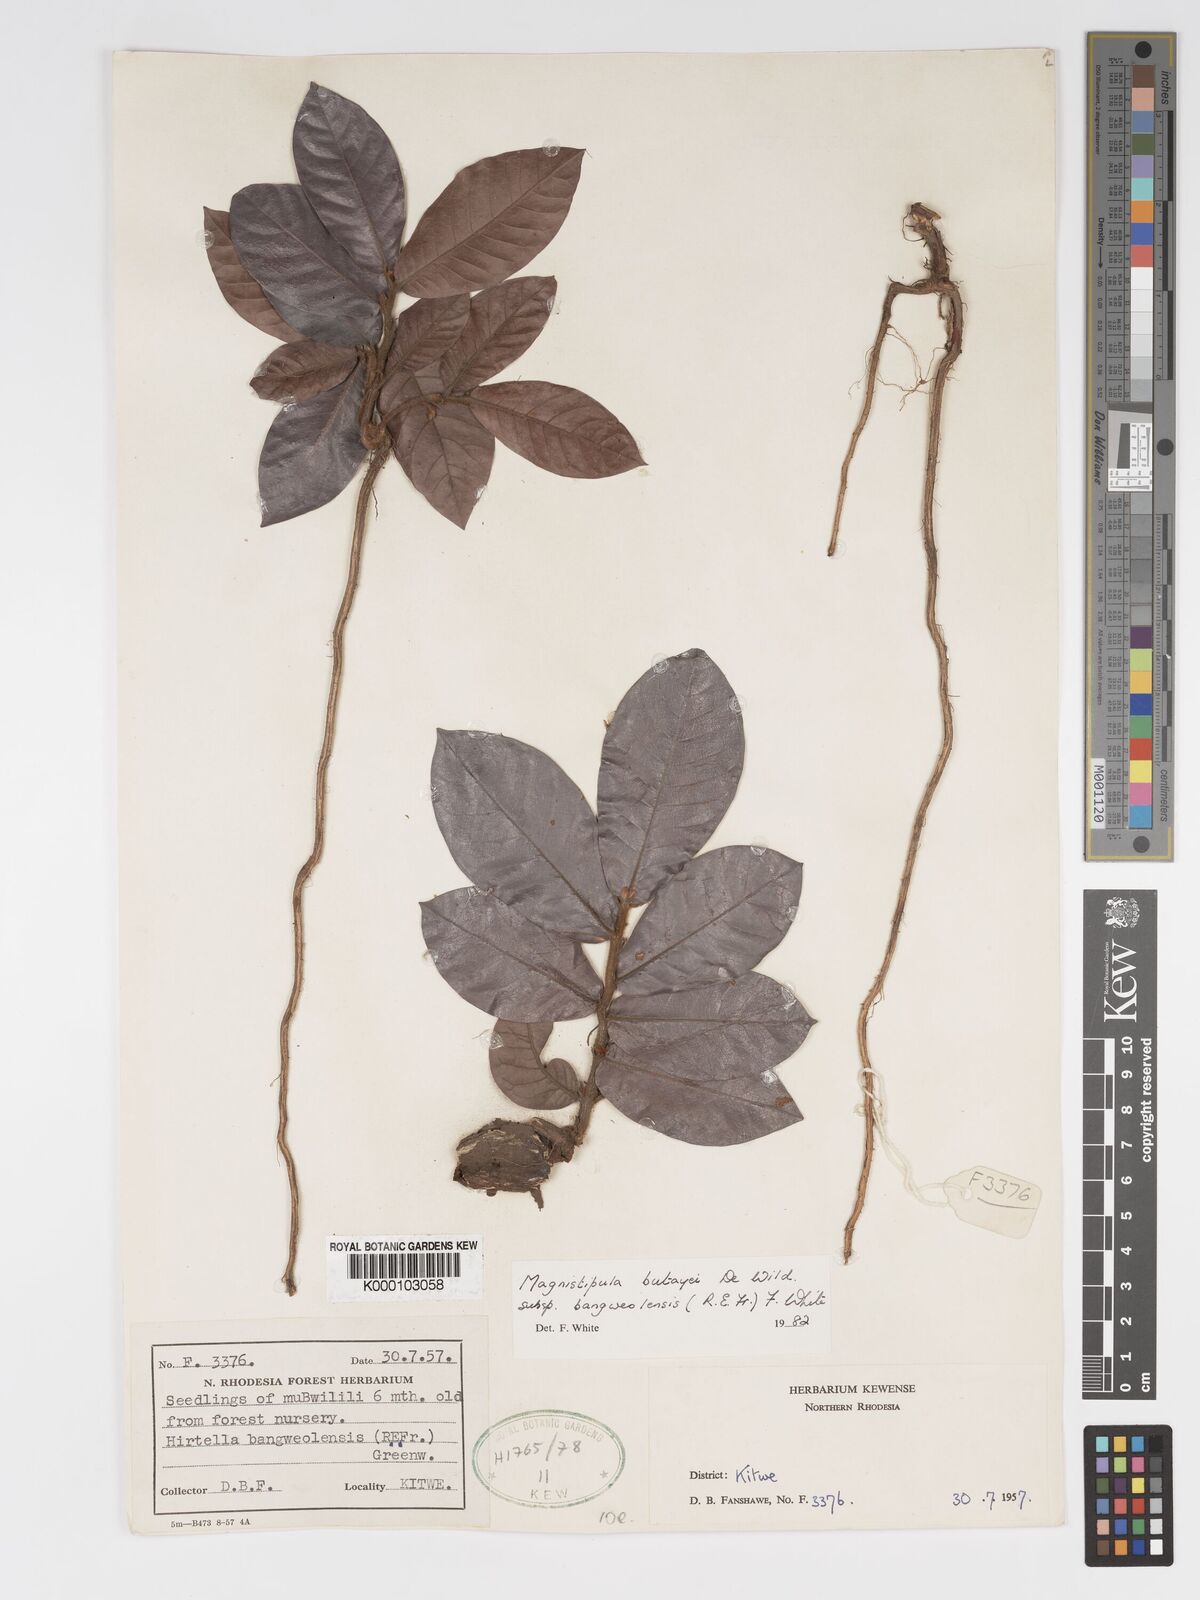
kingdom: Plantae
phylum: Tracheophyta
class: Magnoliopsida
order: Malpighiales
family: Chrysobalanaceae
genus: Magnistipula
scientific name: Magnistipula butayei
